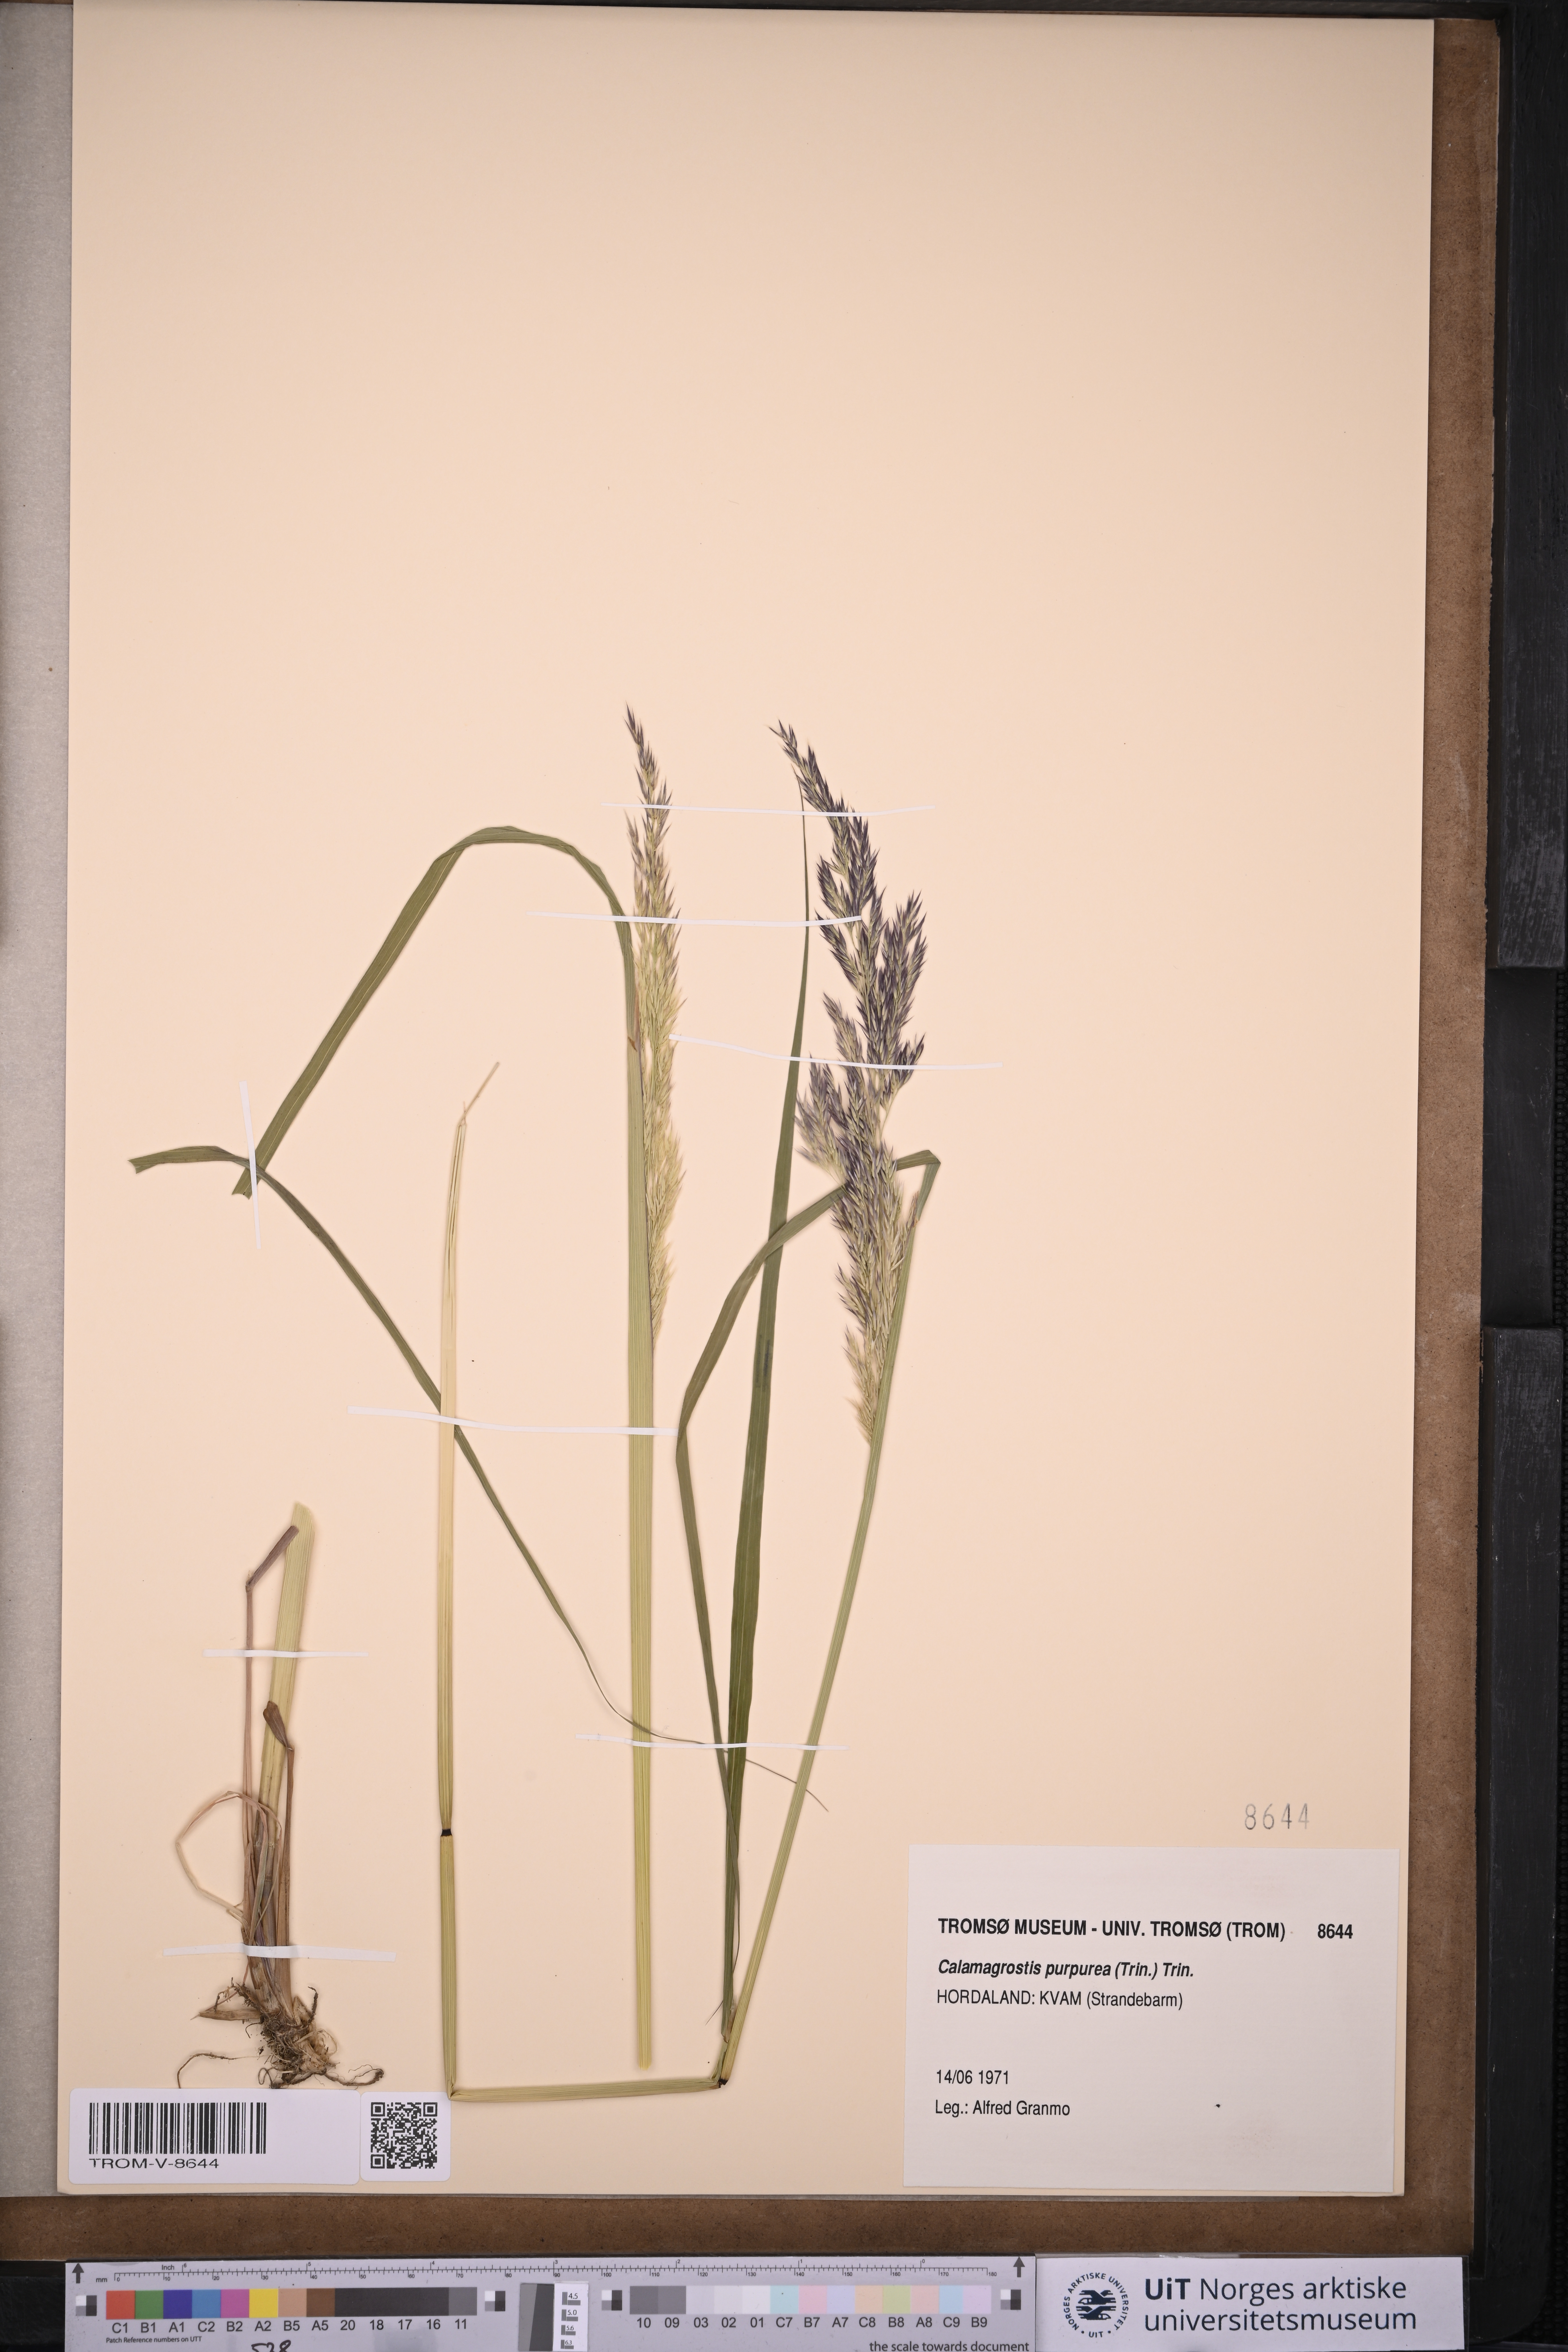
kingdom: Plantae
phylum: Tracheophyta
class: Liliopsida
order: Poales
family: Poaceae
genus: Calamagrostis
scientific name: Calamagrostis purpurea
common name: Scandinavian small-reed
